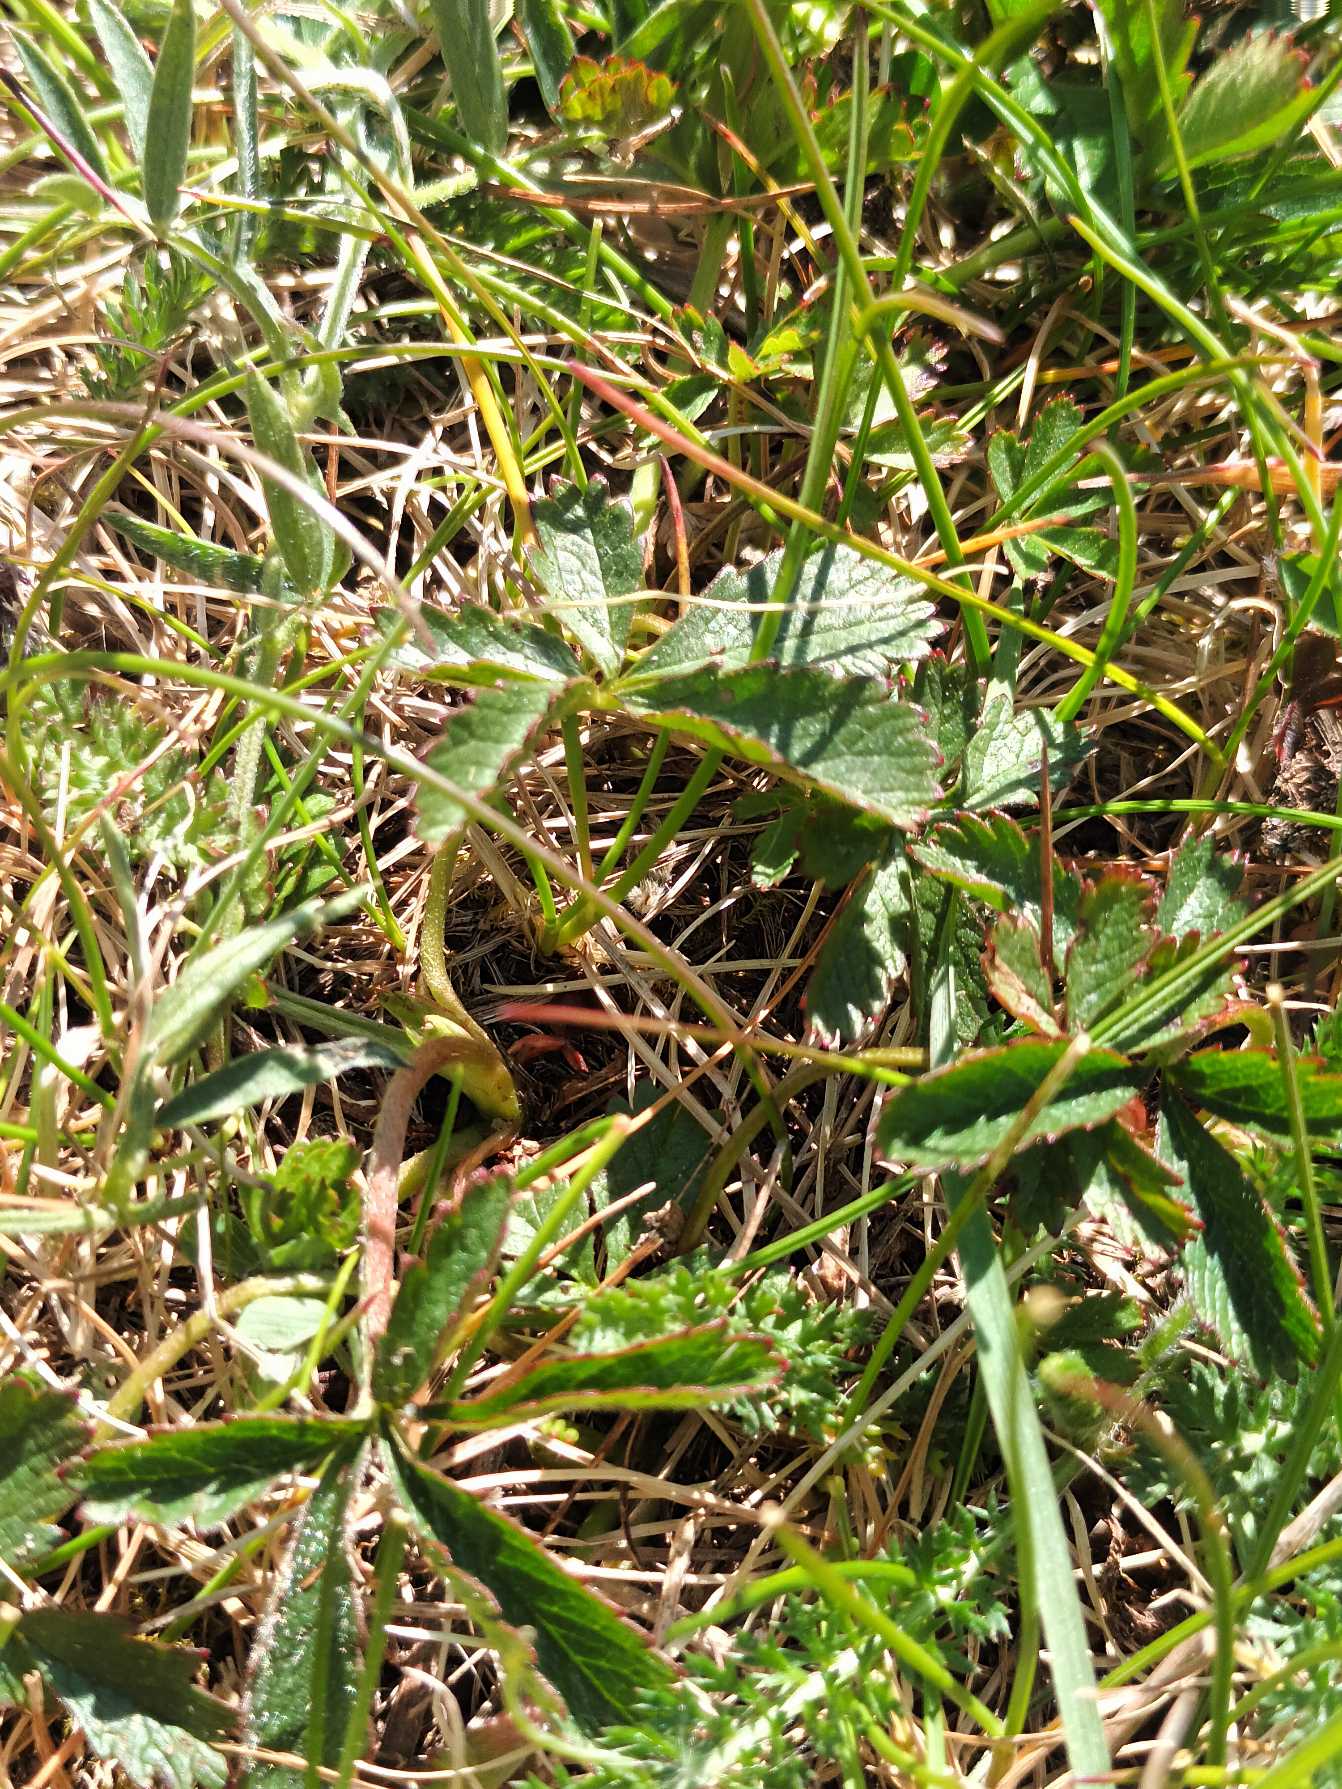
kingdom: Plantae
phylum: Tracheophyta
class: Magnoliopsida
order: Rosales
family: Rosaceae
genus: Potentilla
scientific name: Potentilla reptans
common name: Krybende potentil
